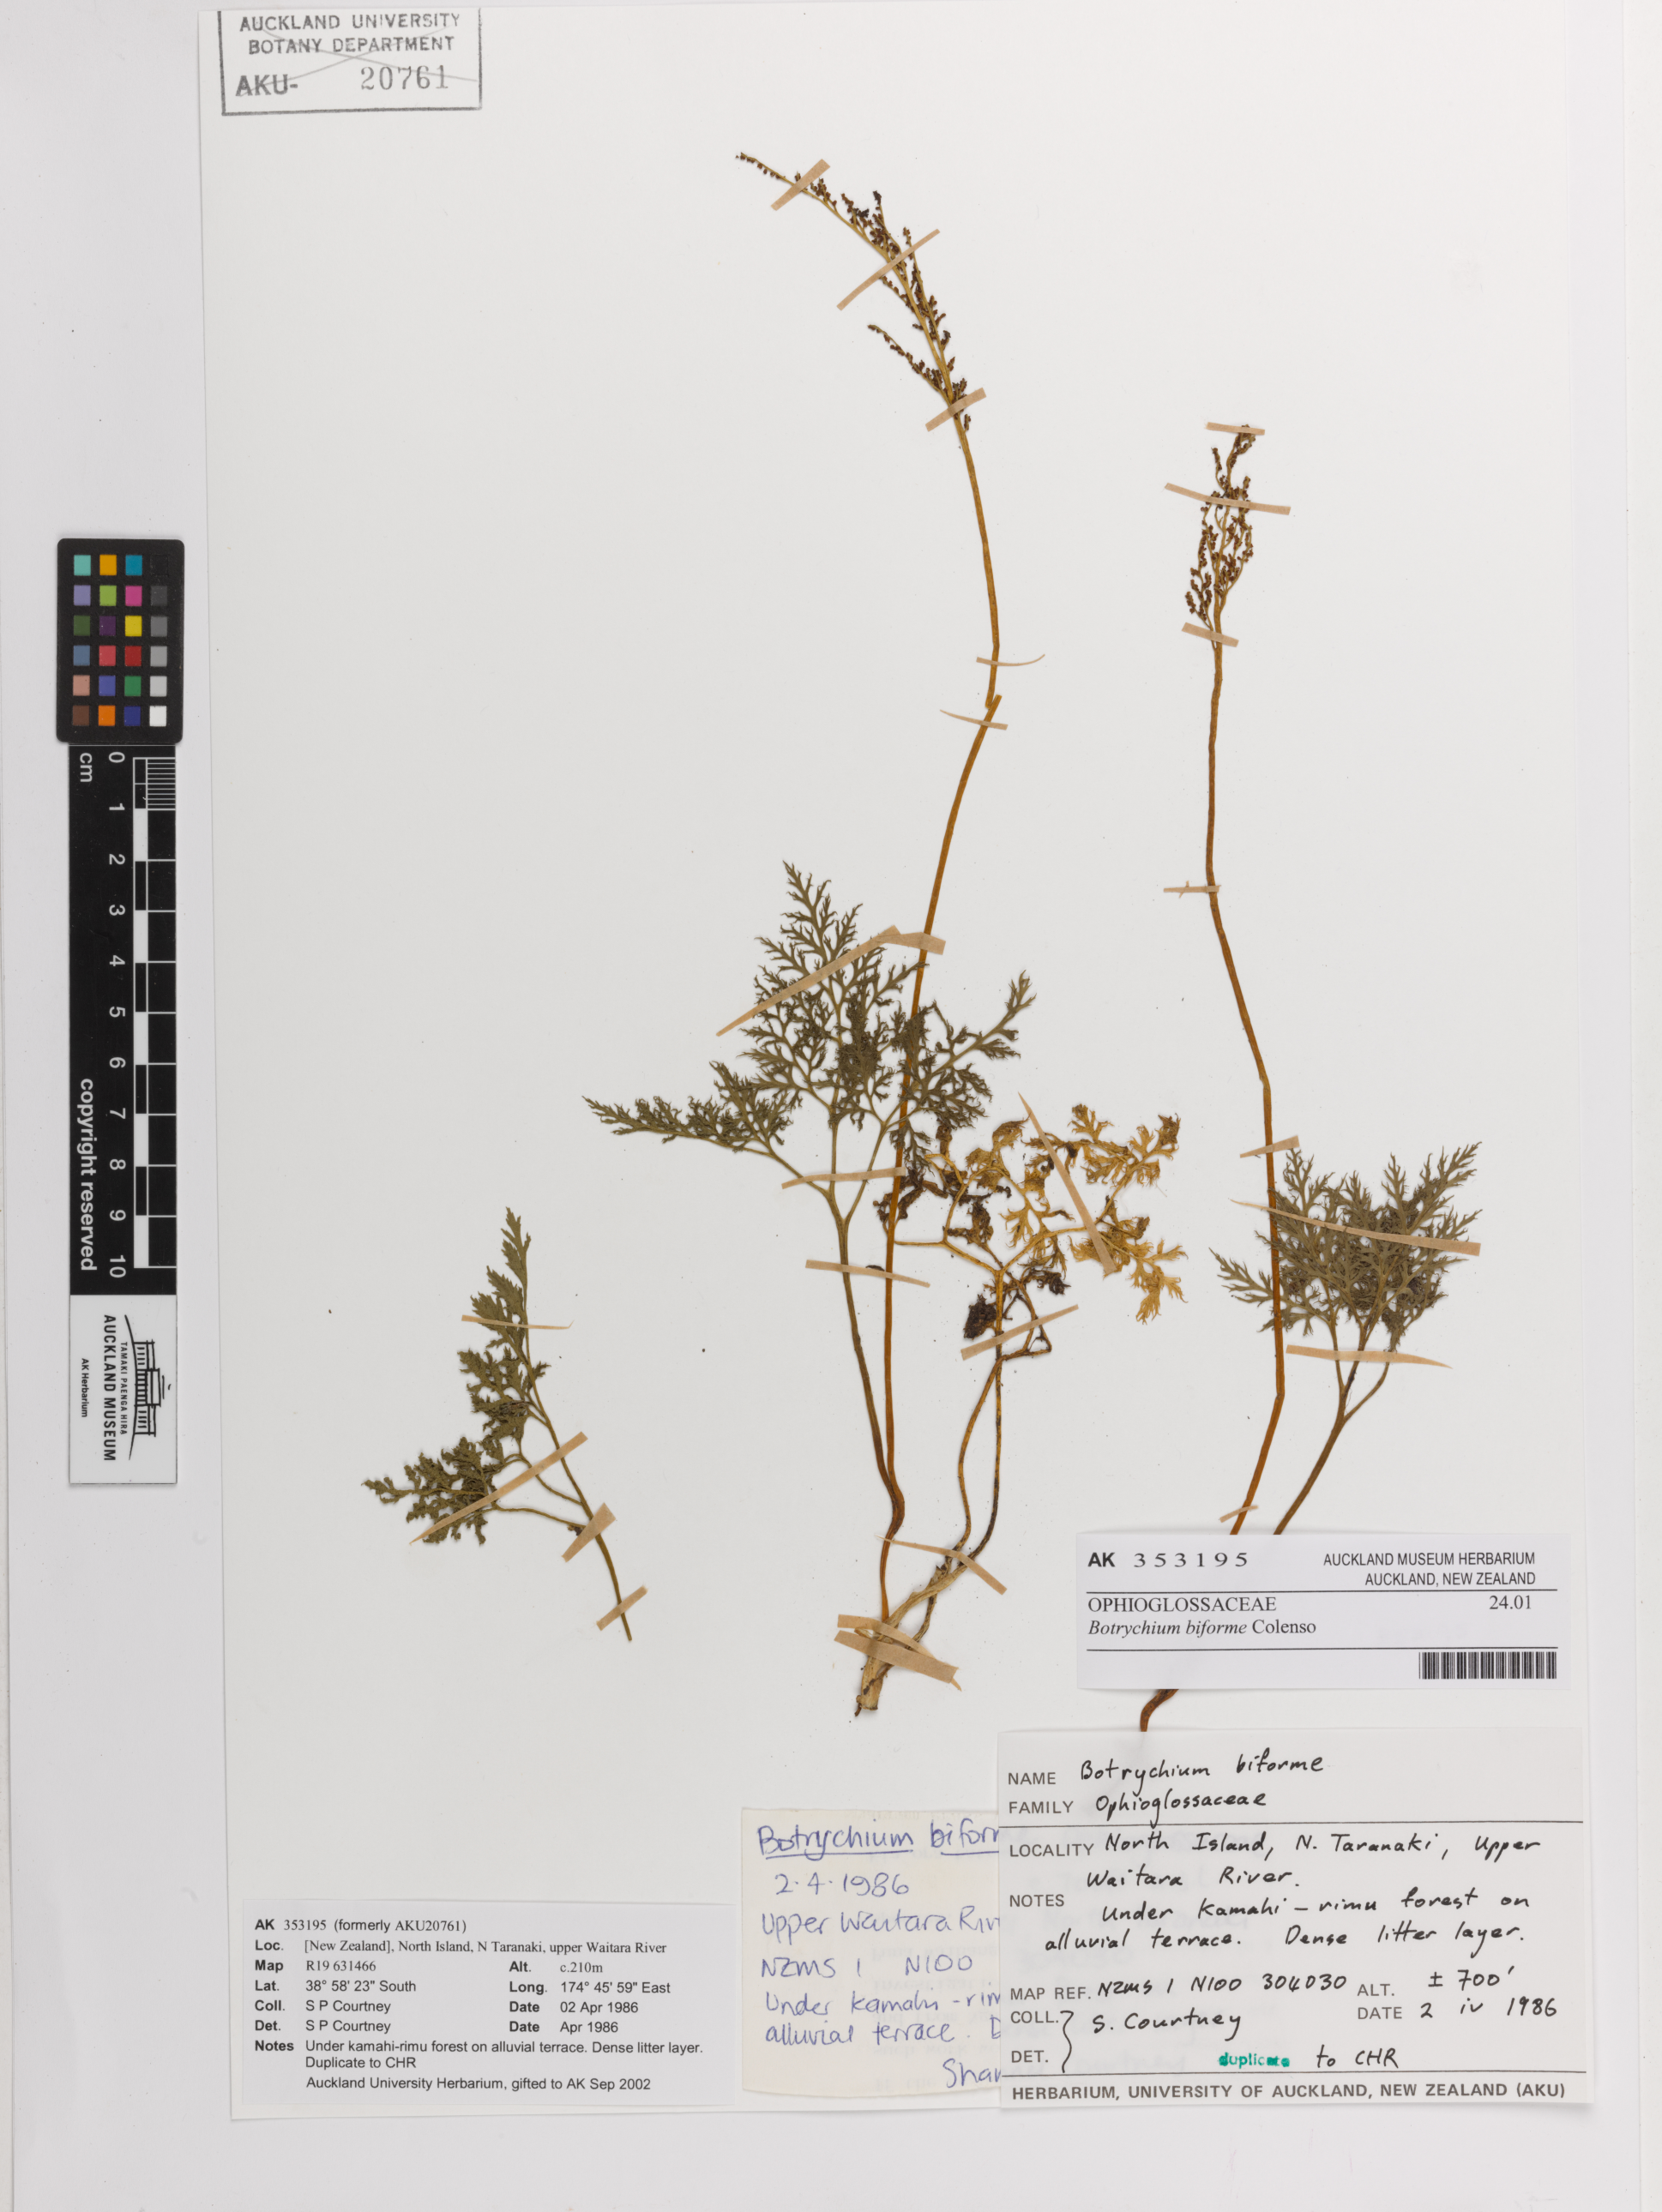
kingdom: Plantae
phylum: Tracheophyta
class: Polypodiopsida
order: Ophioglossales
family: Ophioglossaceae
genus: Sceptridium
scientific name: Sceptridium biforme
